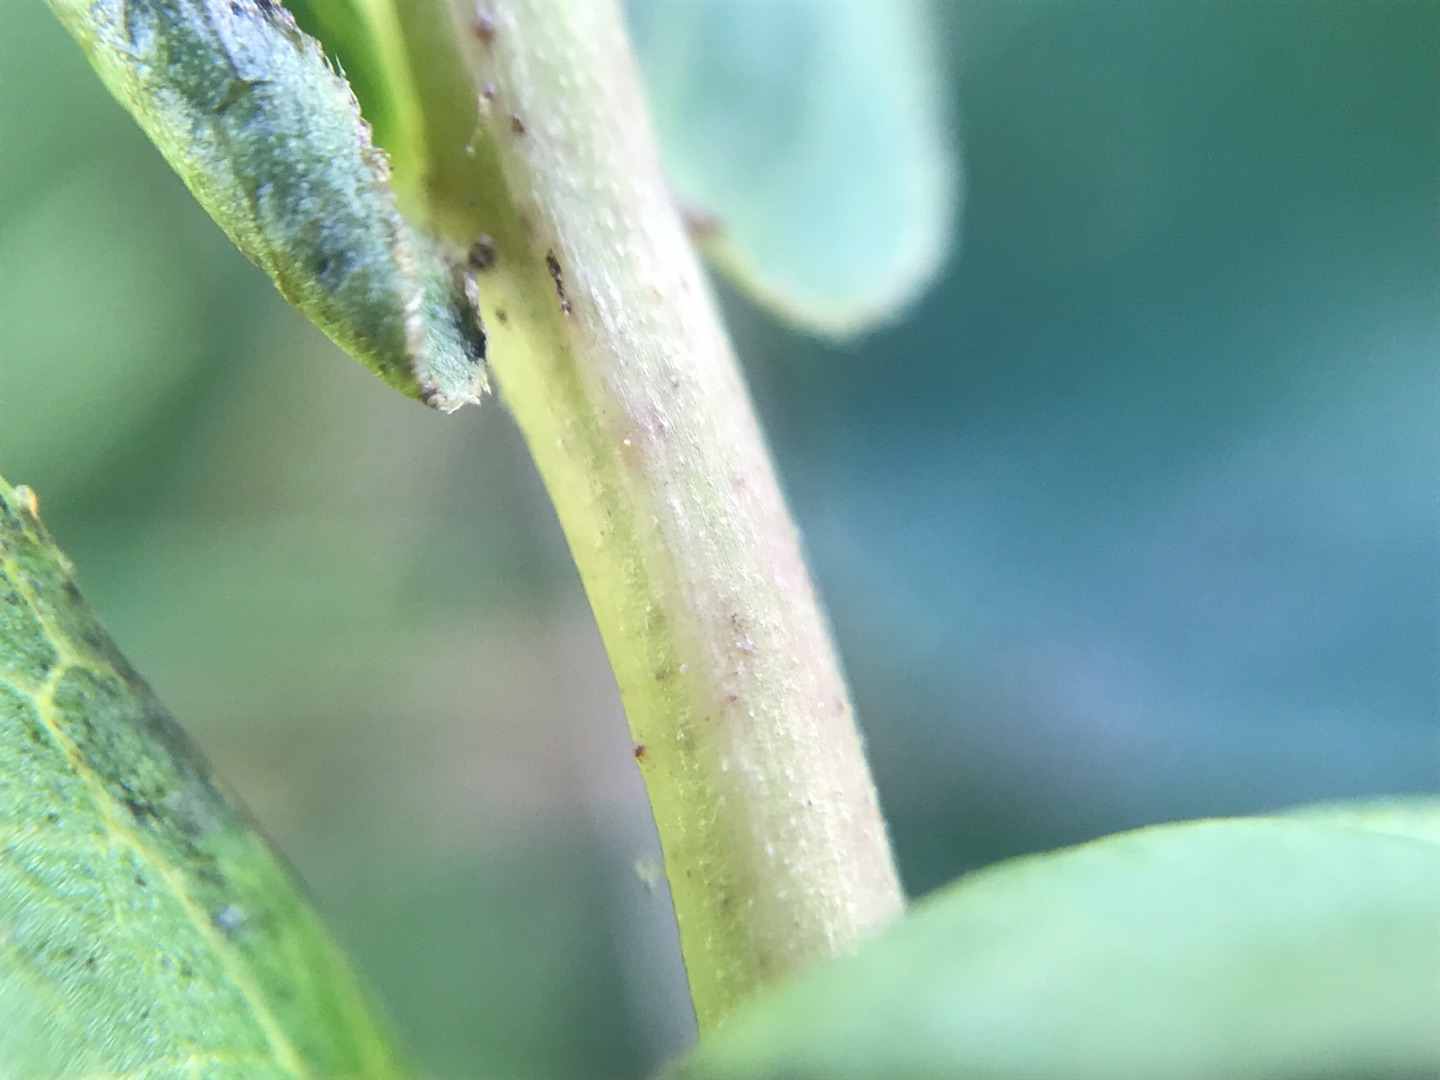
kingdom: Plantae
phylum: Tracheophyta
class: Magnoliopsida
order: Asterales
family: Asteraceae
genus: Solidago
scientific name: Solidago gigantea
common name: Sildig gyldenris
